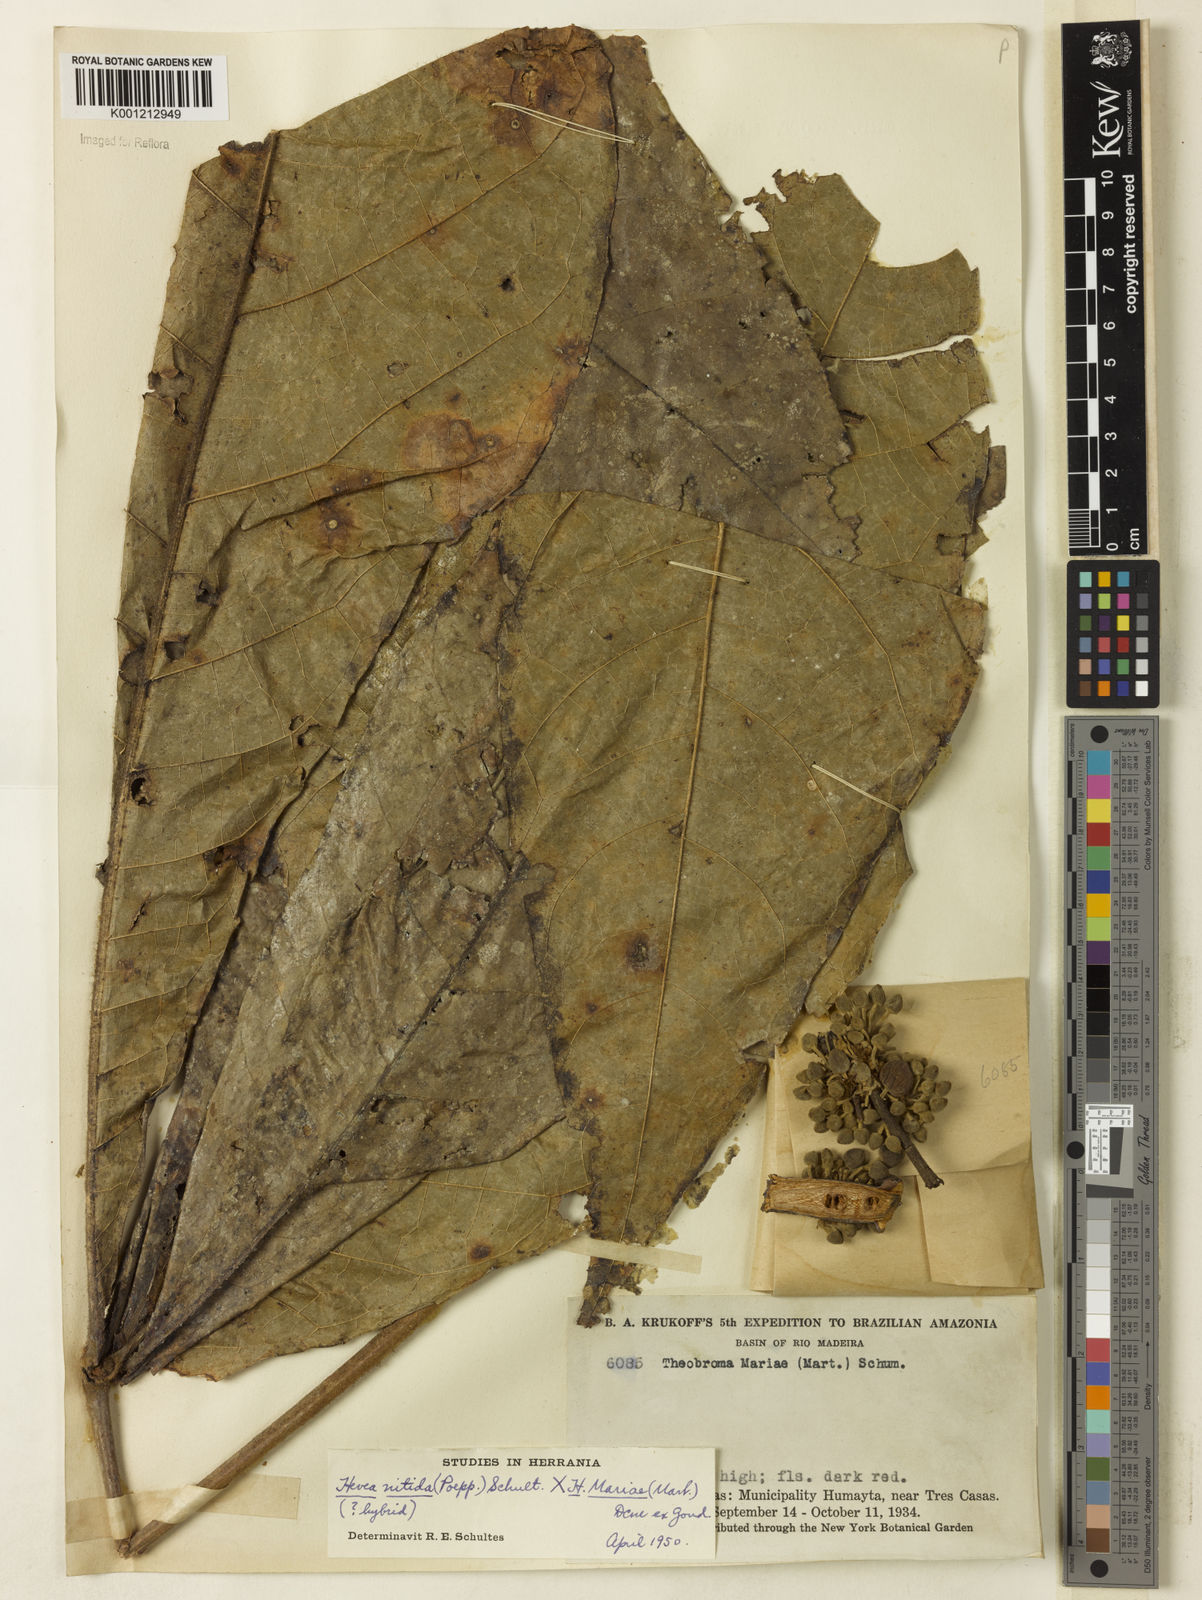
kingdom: Plantae
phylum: Tracheophyta
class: Magnoliopsida
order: Malvales
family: Malvaceae
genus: Herrania
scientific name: Herrania mariae
